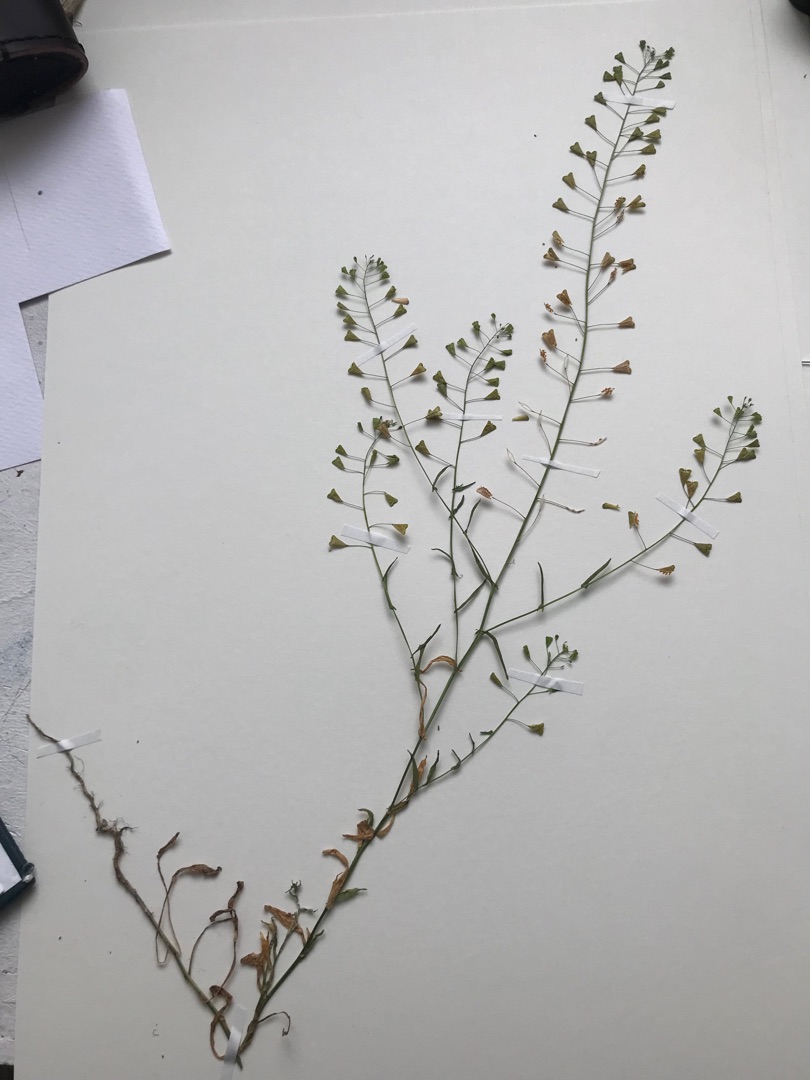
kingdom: Plantae
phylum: Tracheophyta
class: Magnoliopsida
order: Brassicales
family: Brassicaceae
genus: Capsella
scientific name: Capsella bursa-pastoris
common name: Hyrdetaske
